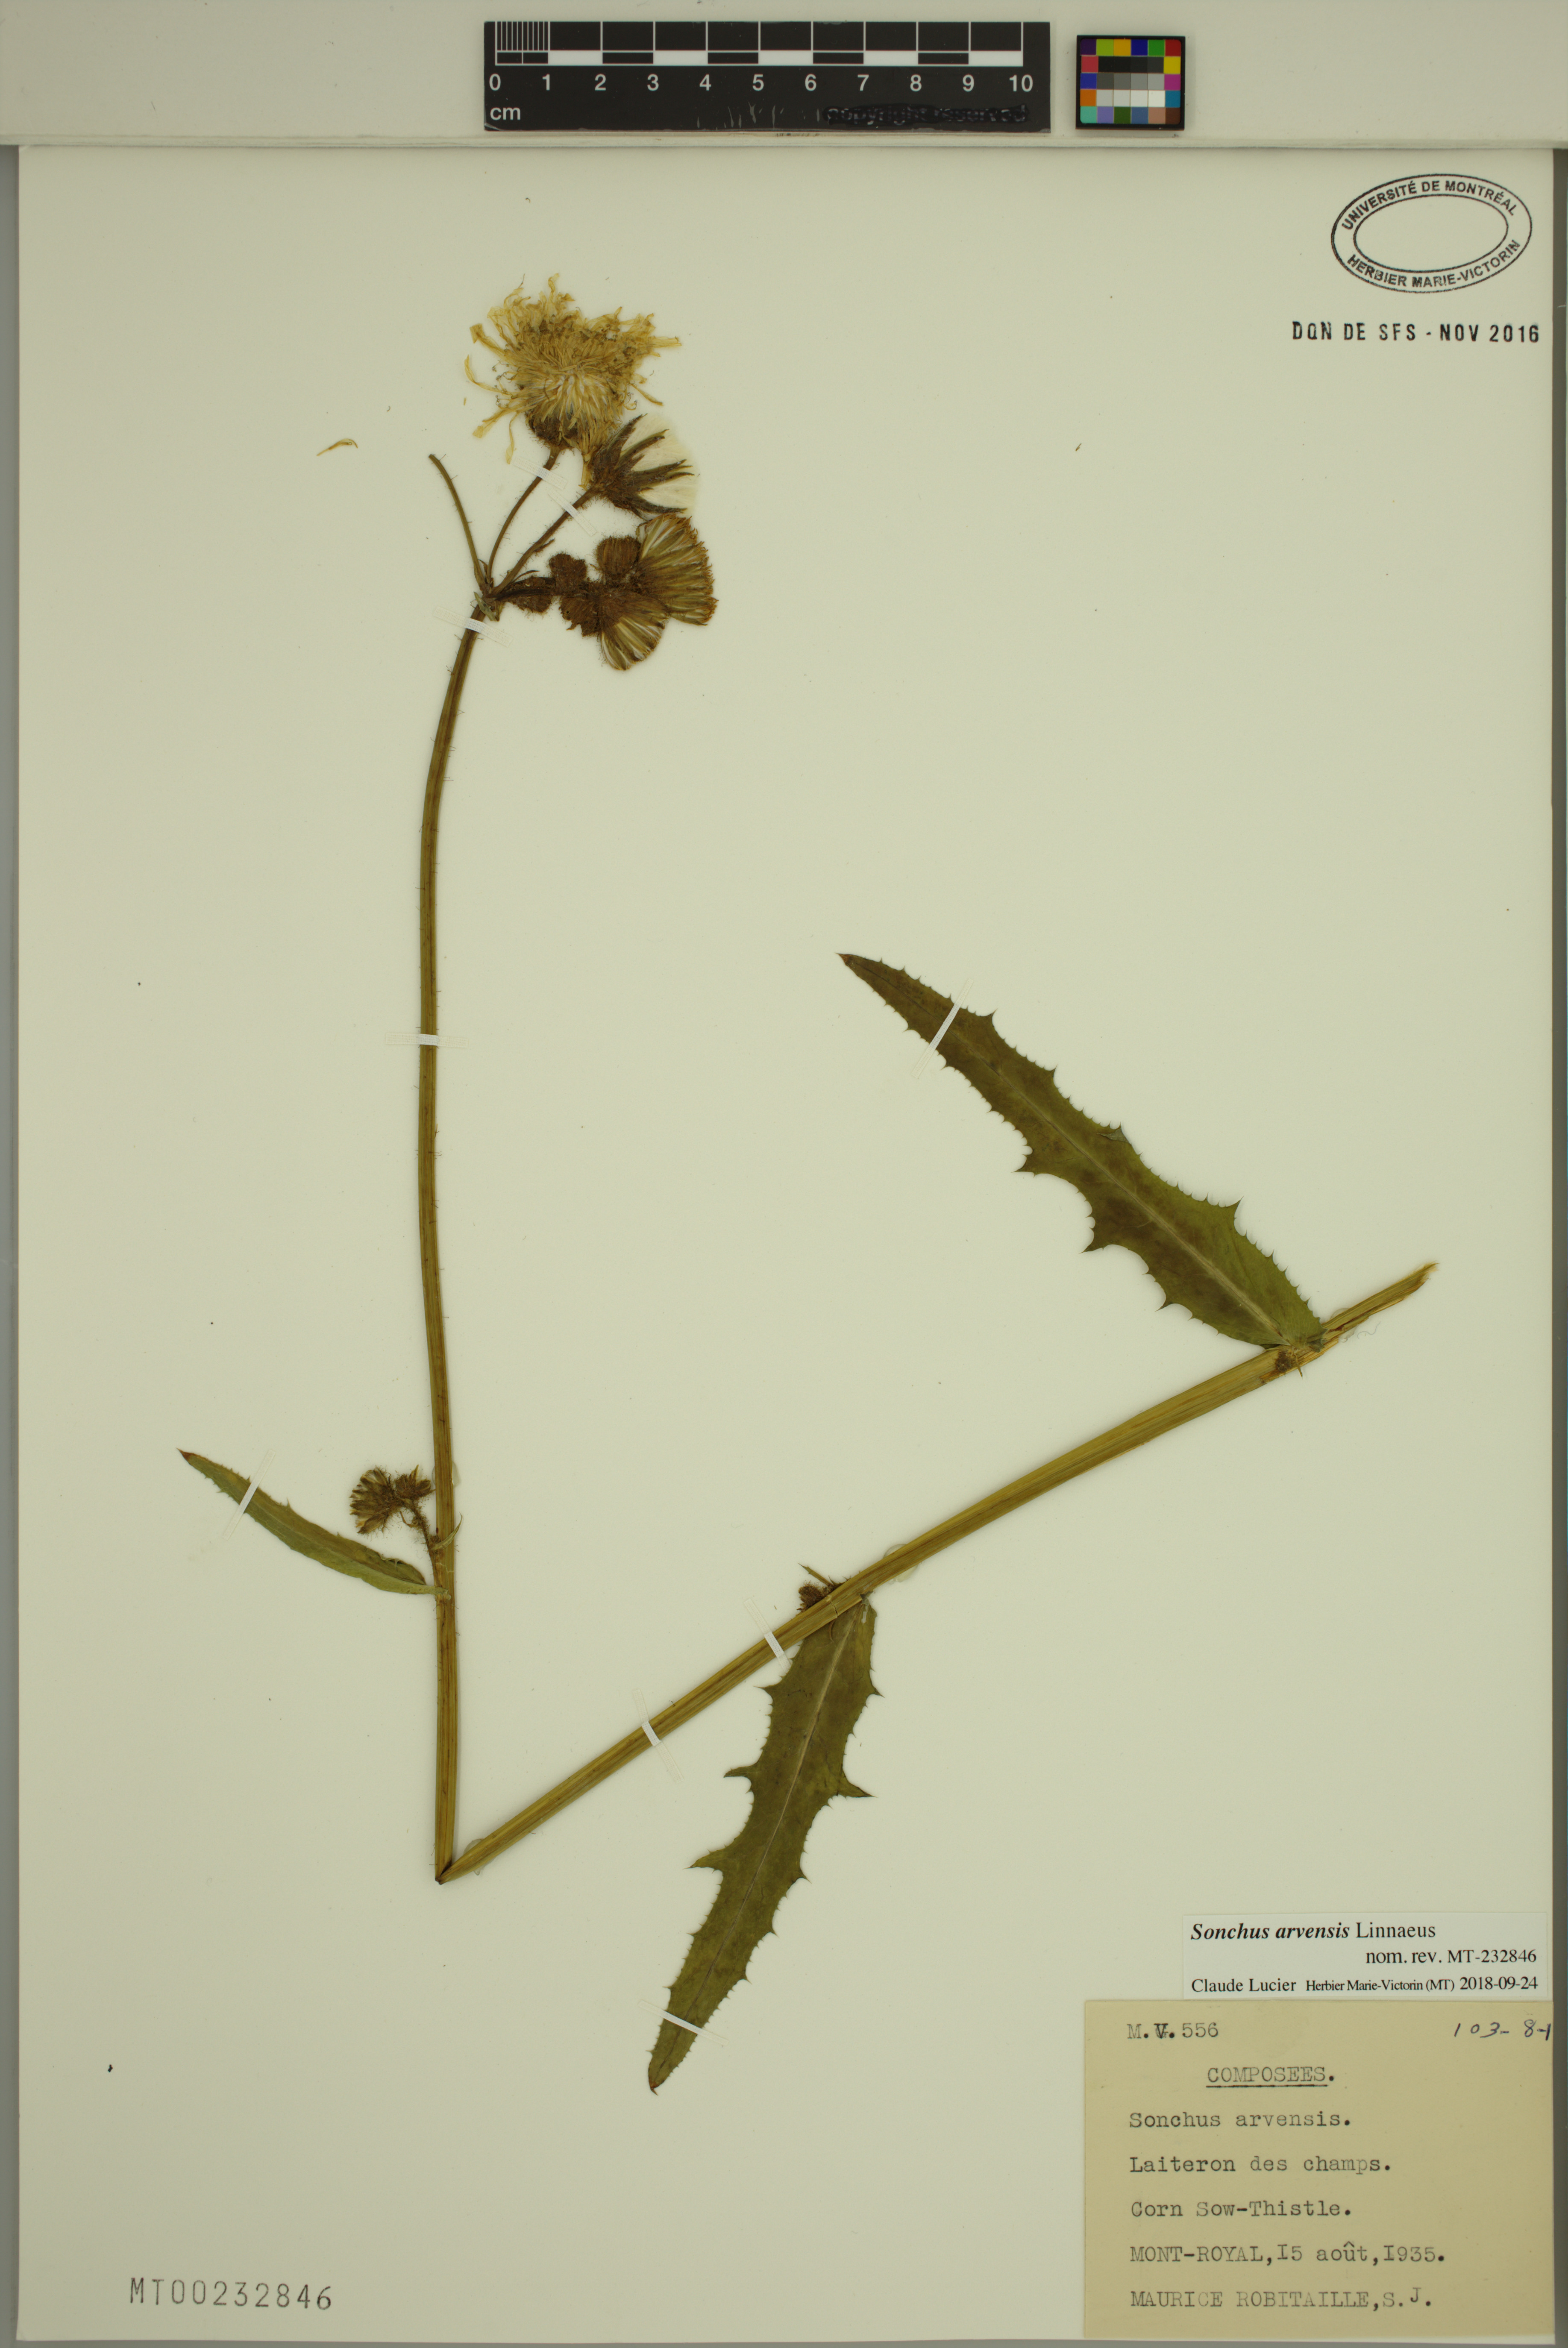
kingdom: Plantae
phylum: Tracheophyta
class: Magnoliopsida
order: Asterales
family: Asteraceae
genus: Sonchus
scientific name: Sonchus arvensis
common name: Perennial sow-thistle
